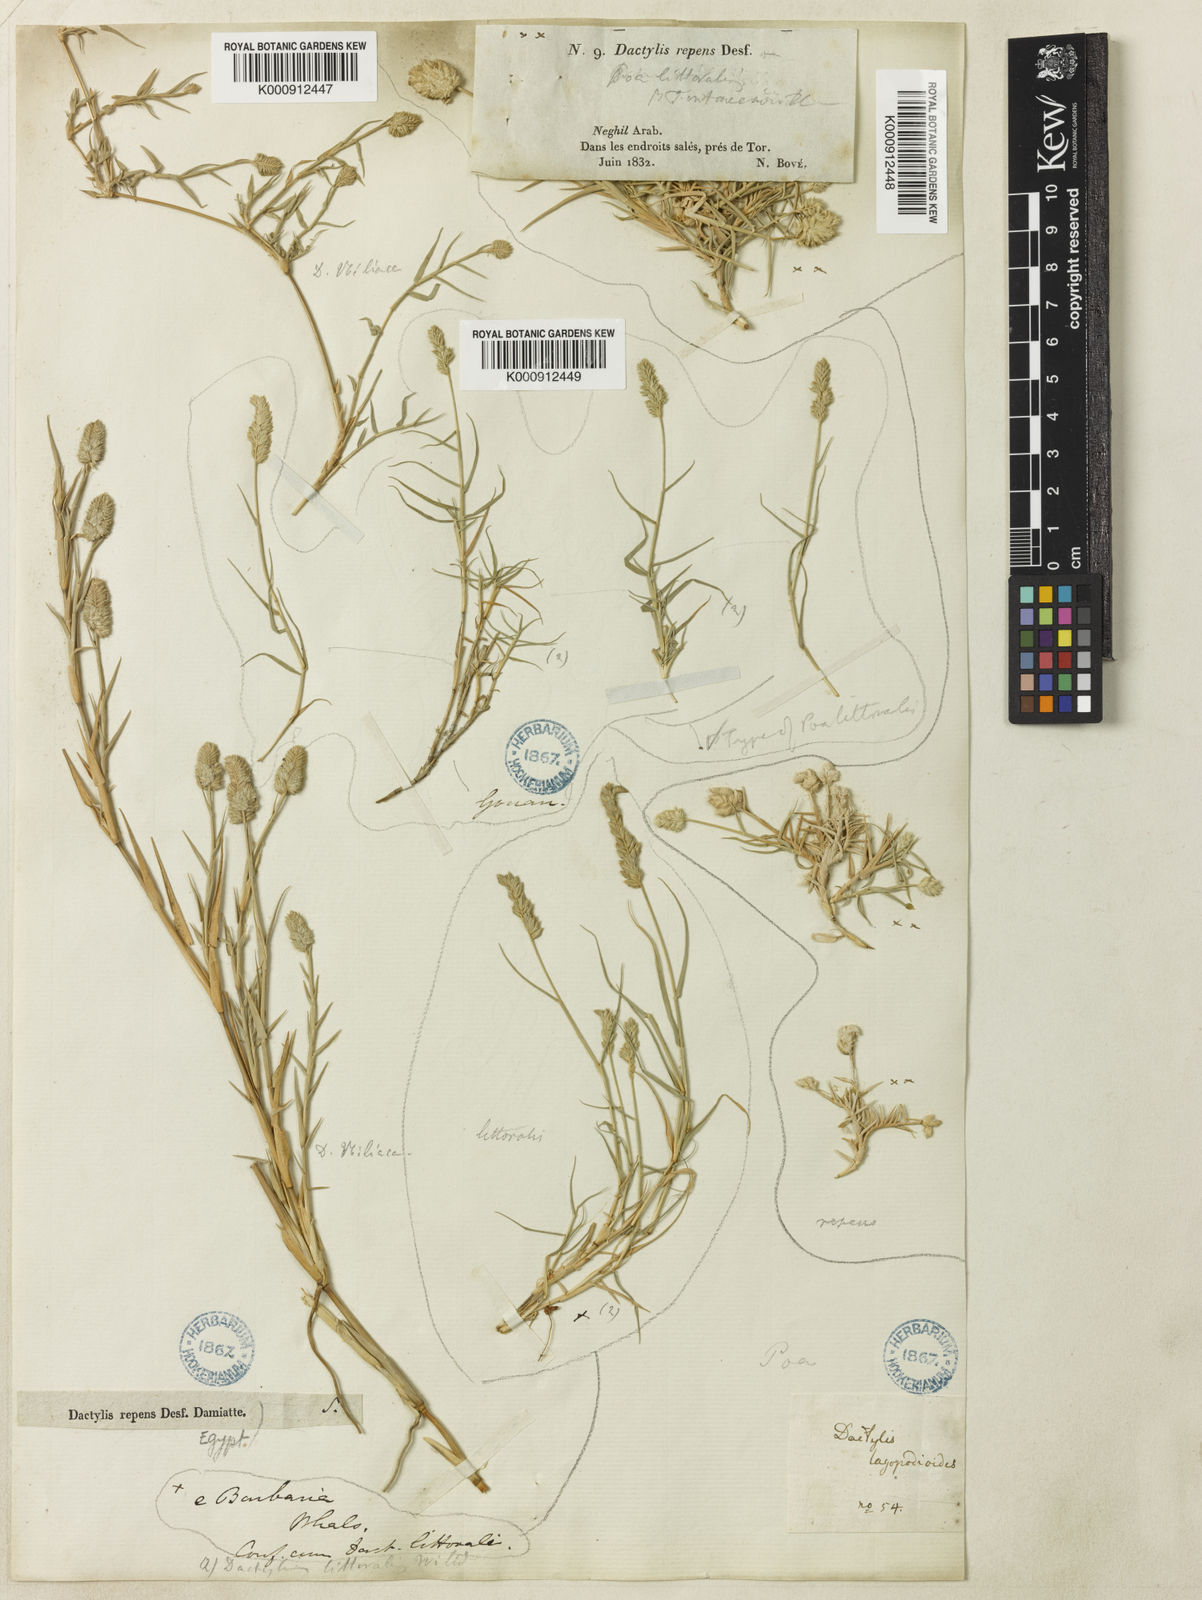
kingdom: Plantae
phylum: Tracheophyta
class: Liliopsida
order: Poales
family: Poaceae
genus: Aeluropus
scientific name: Aeluropus littoralis
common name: Indian walnut
